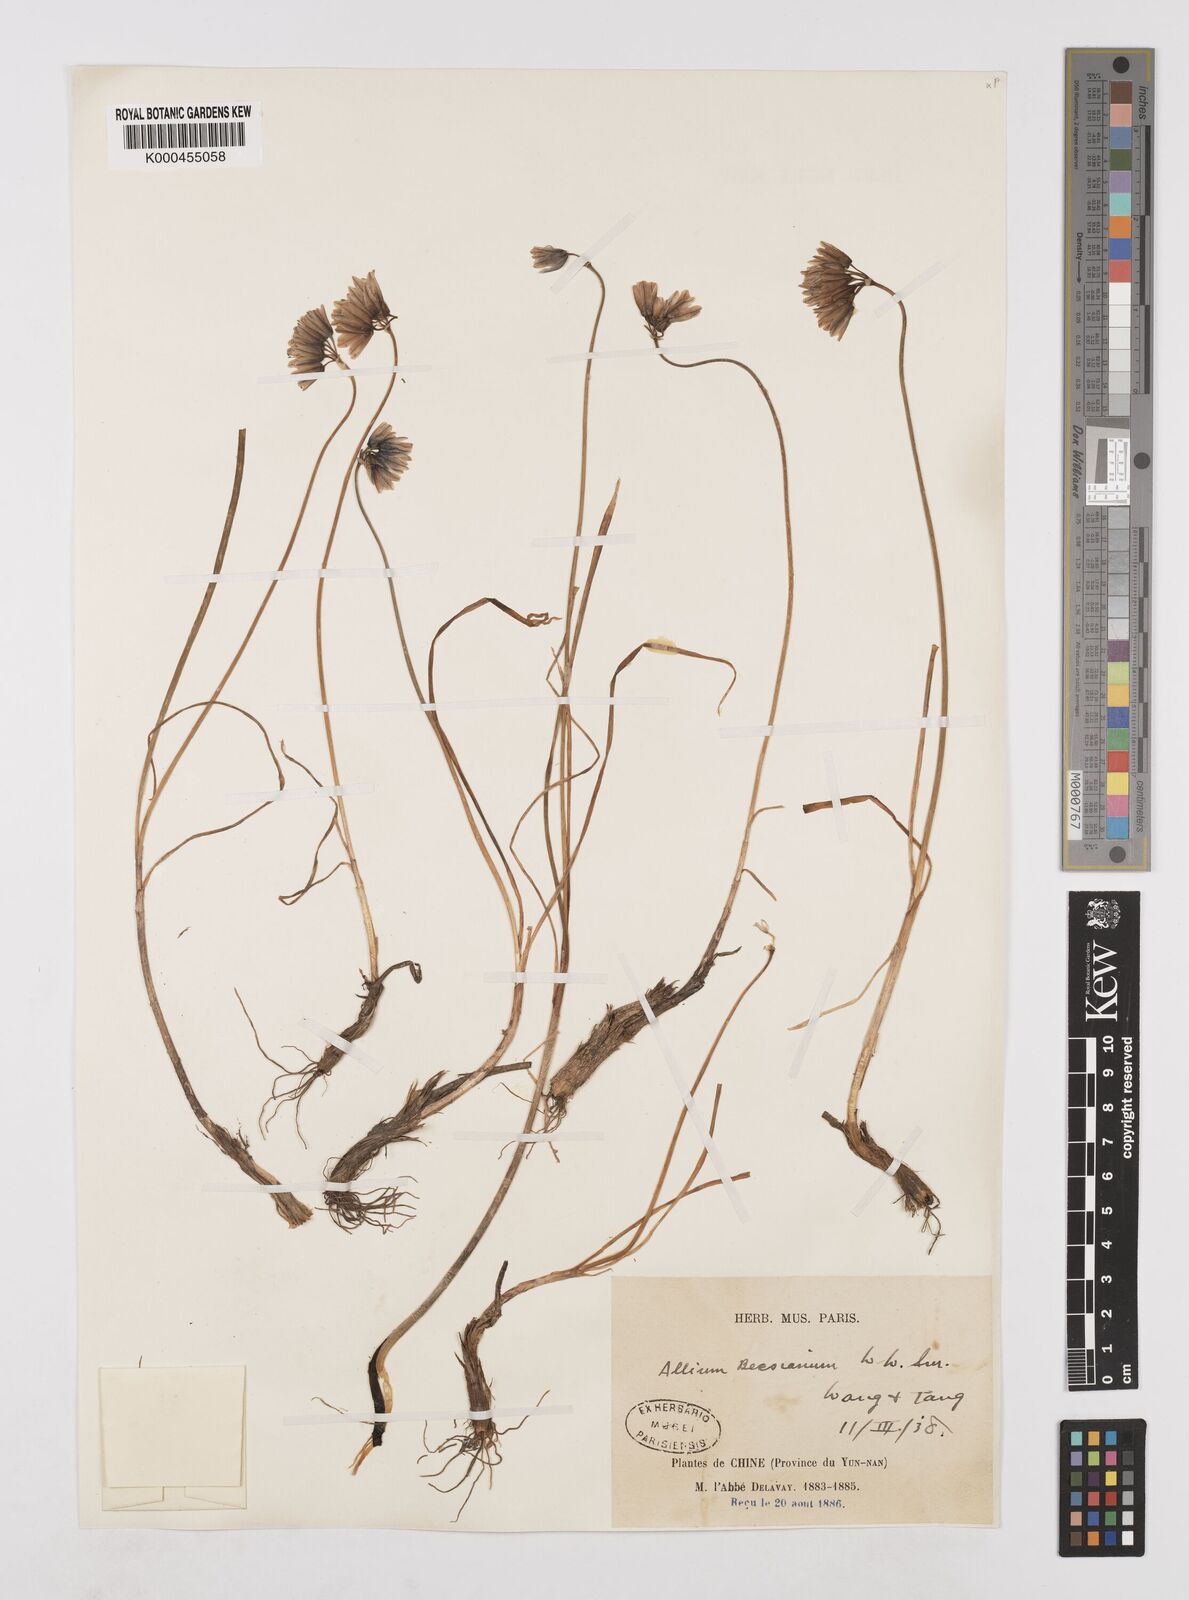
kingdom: Plantae
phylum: Tracheophyta
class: Liliopsida
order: Asparagales
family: Amaryllidaceae
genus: Allium
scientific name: Allium beesianum
